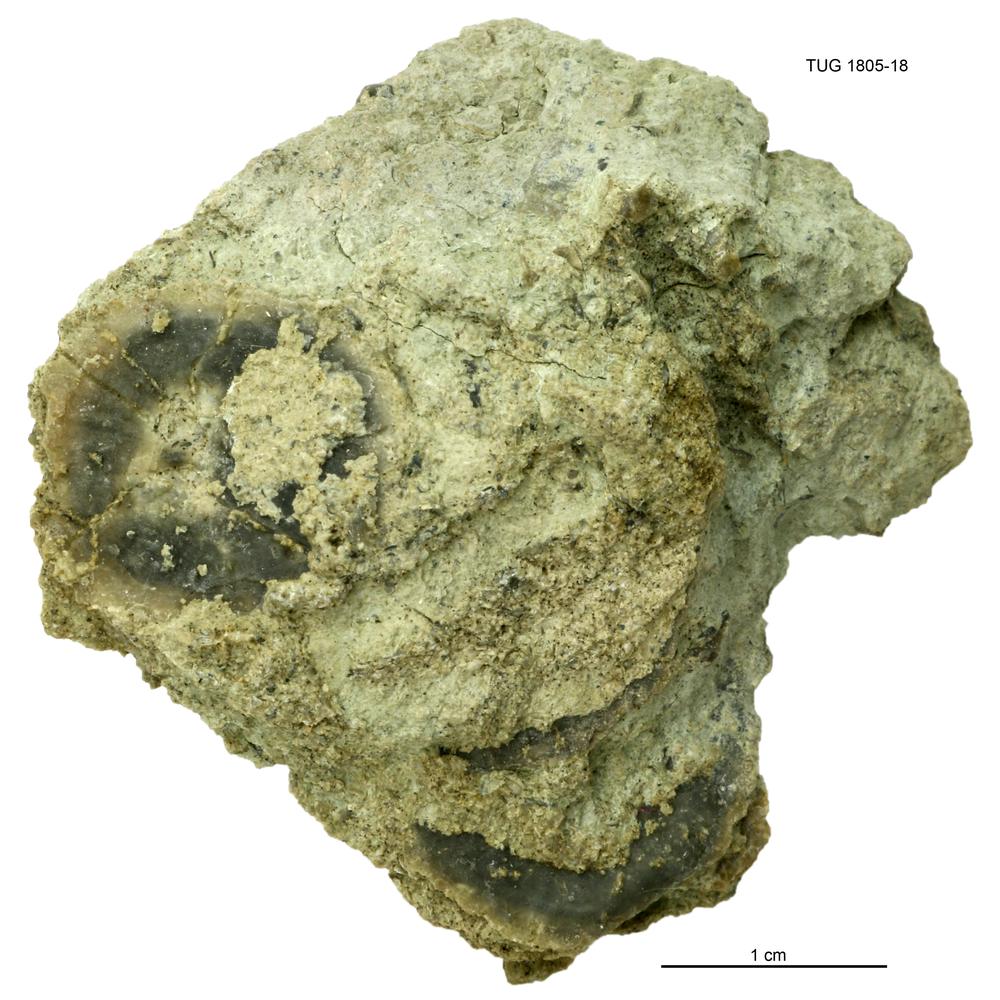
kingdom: Animalia
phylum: Mollusca
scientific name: Mollusca
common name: Mollusca
